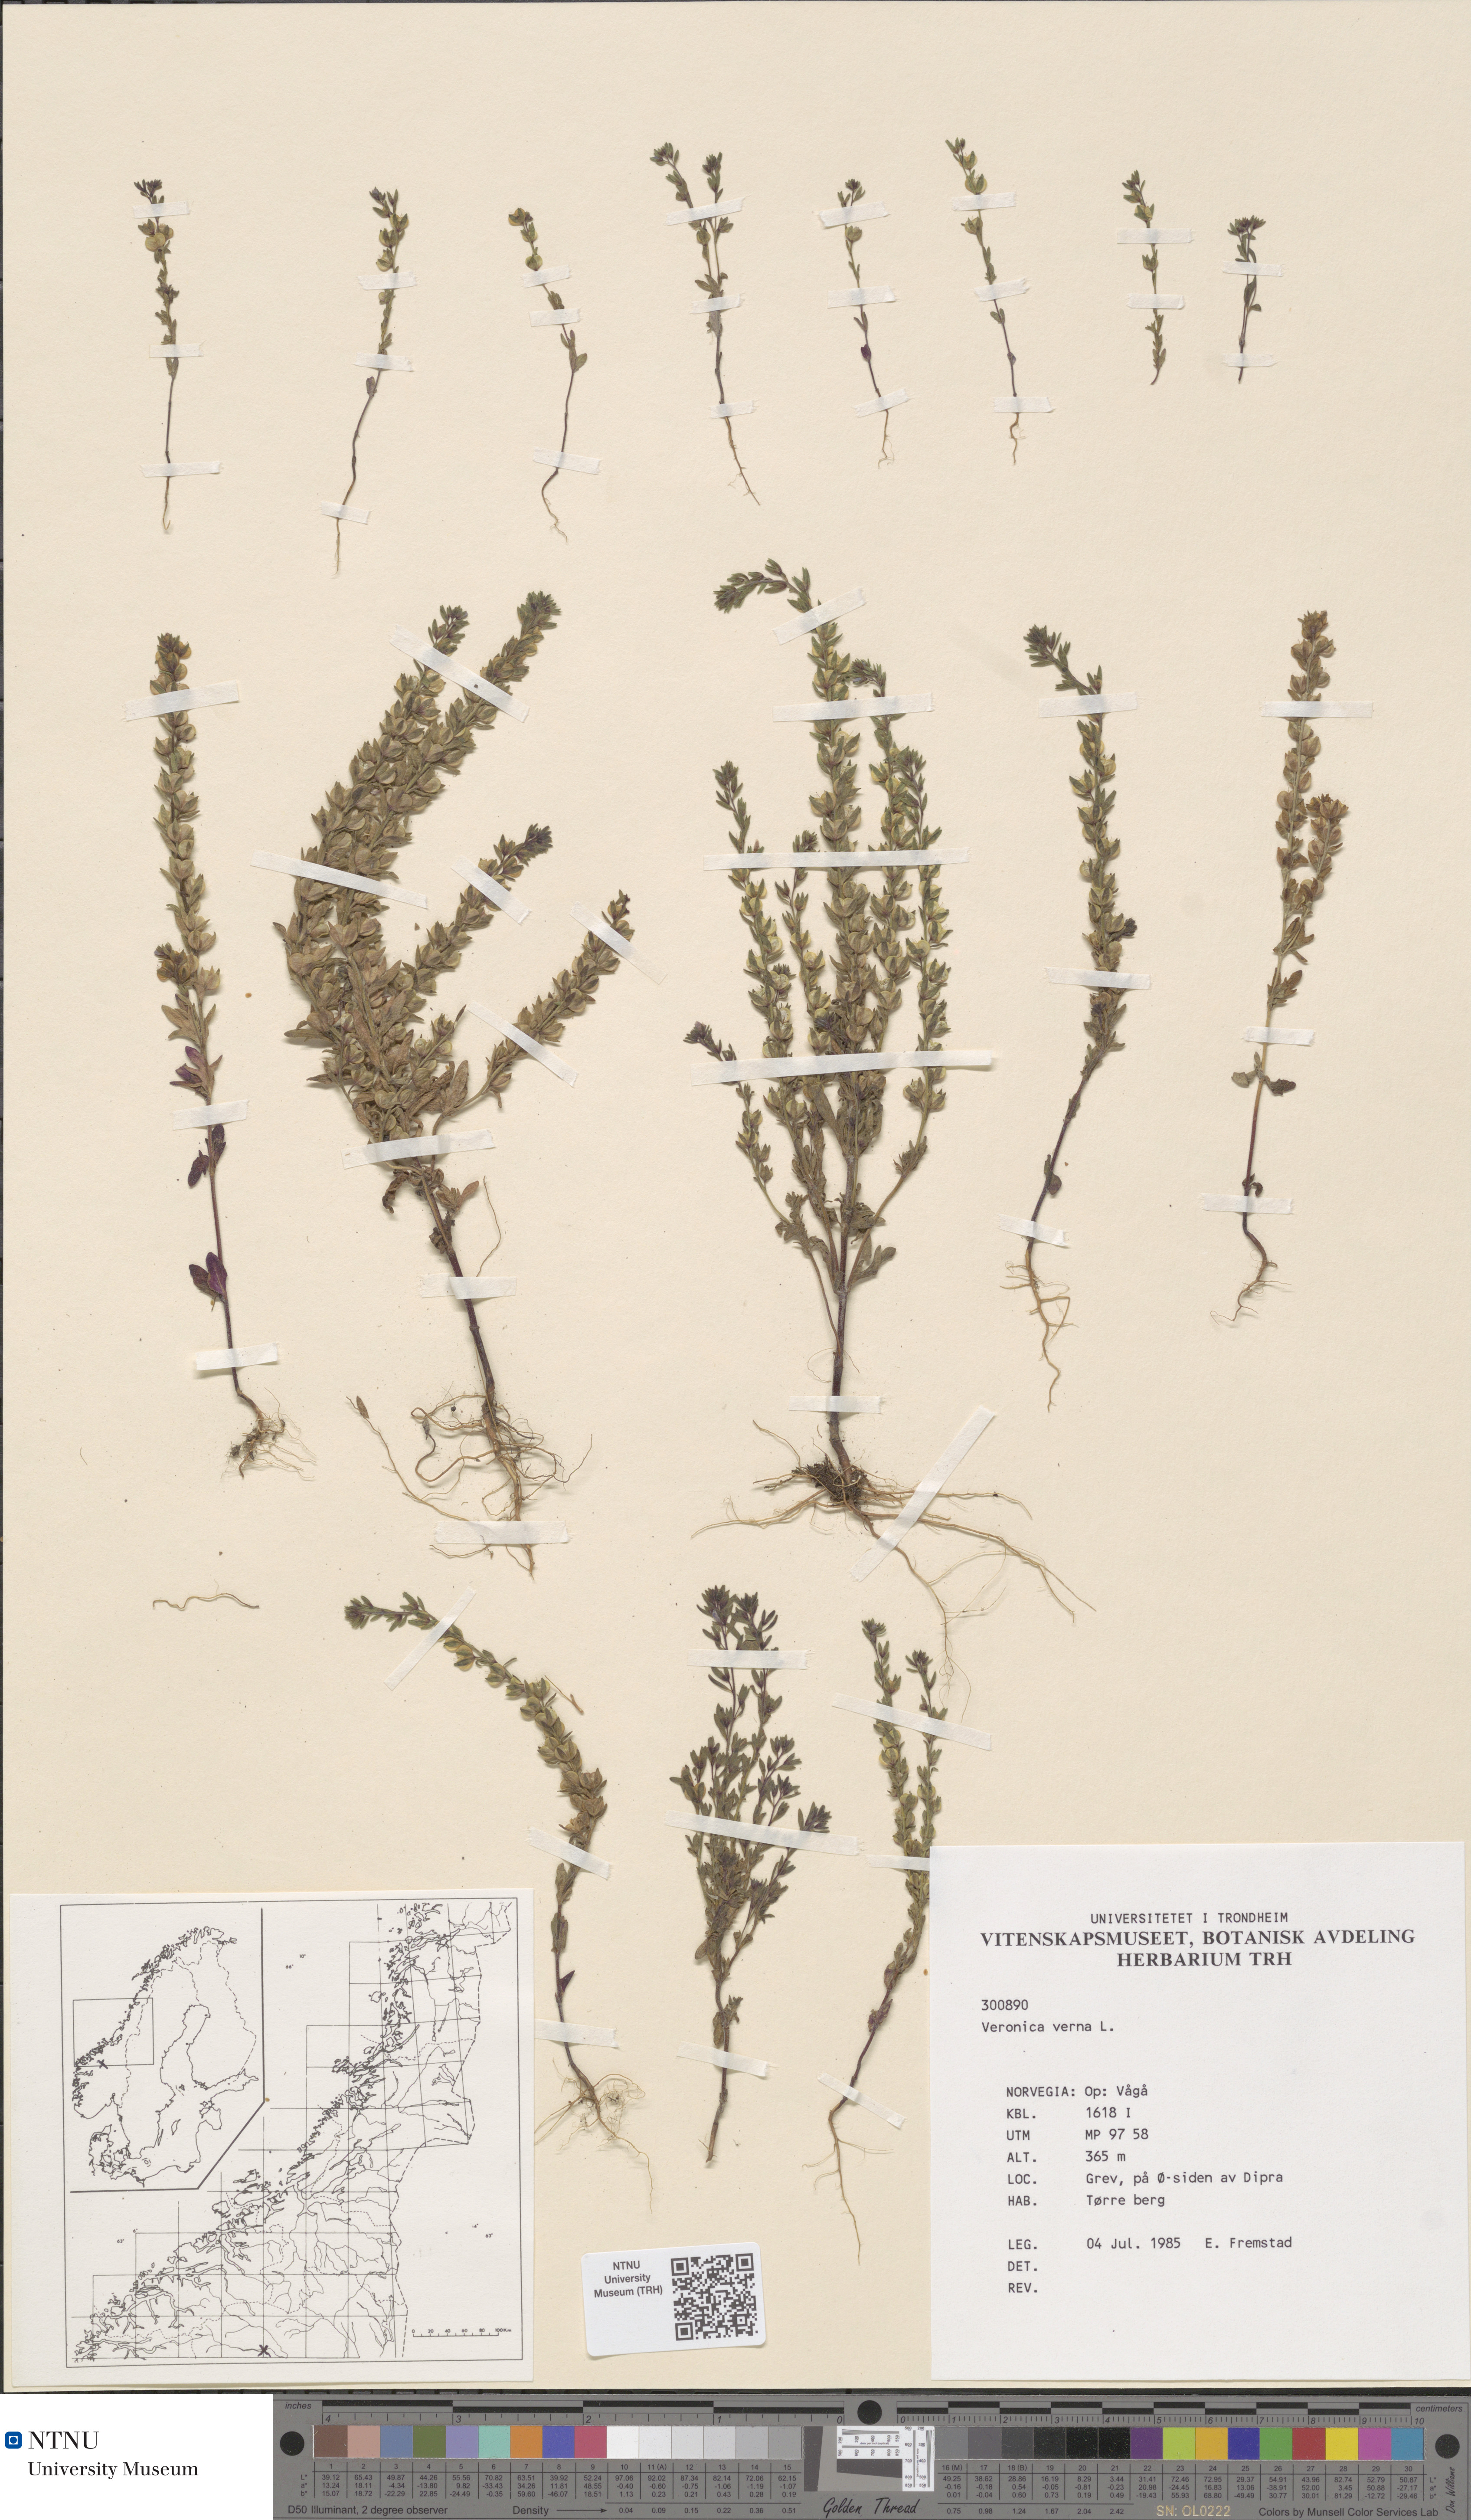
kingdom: Plantae
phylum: Tracheophyta
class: Magnoliopsida
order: Lamiales
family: Plantaginaceae
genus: Veronica
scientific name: Veronica verna
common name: Spring speedwell
